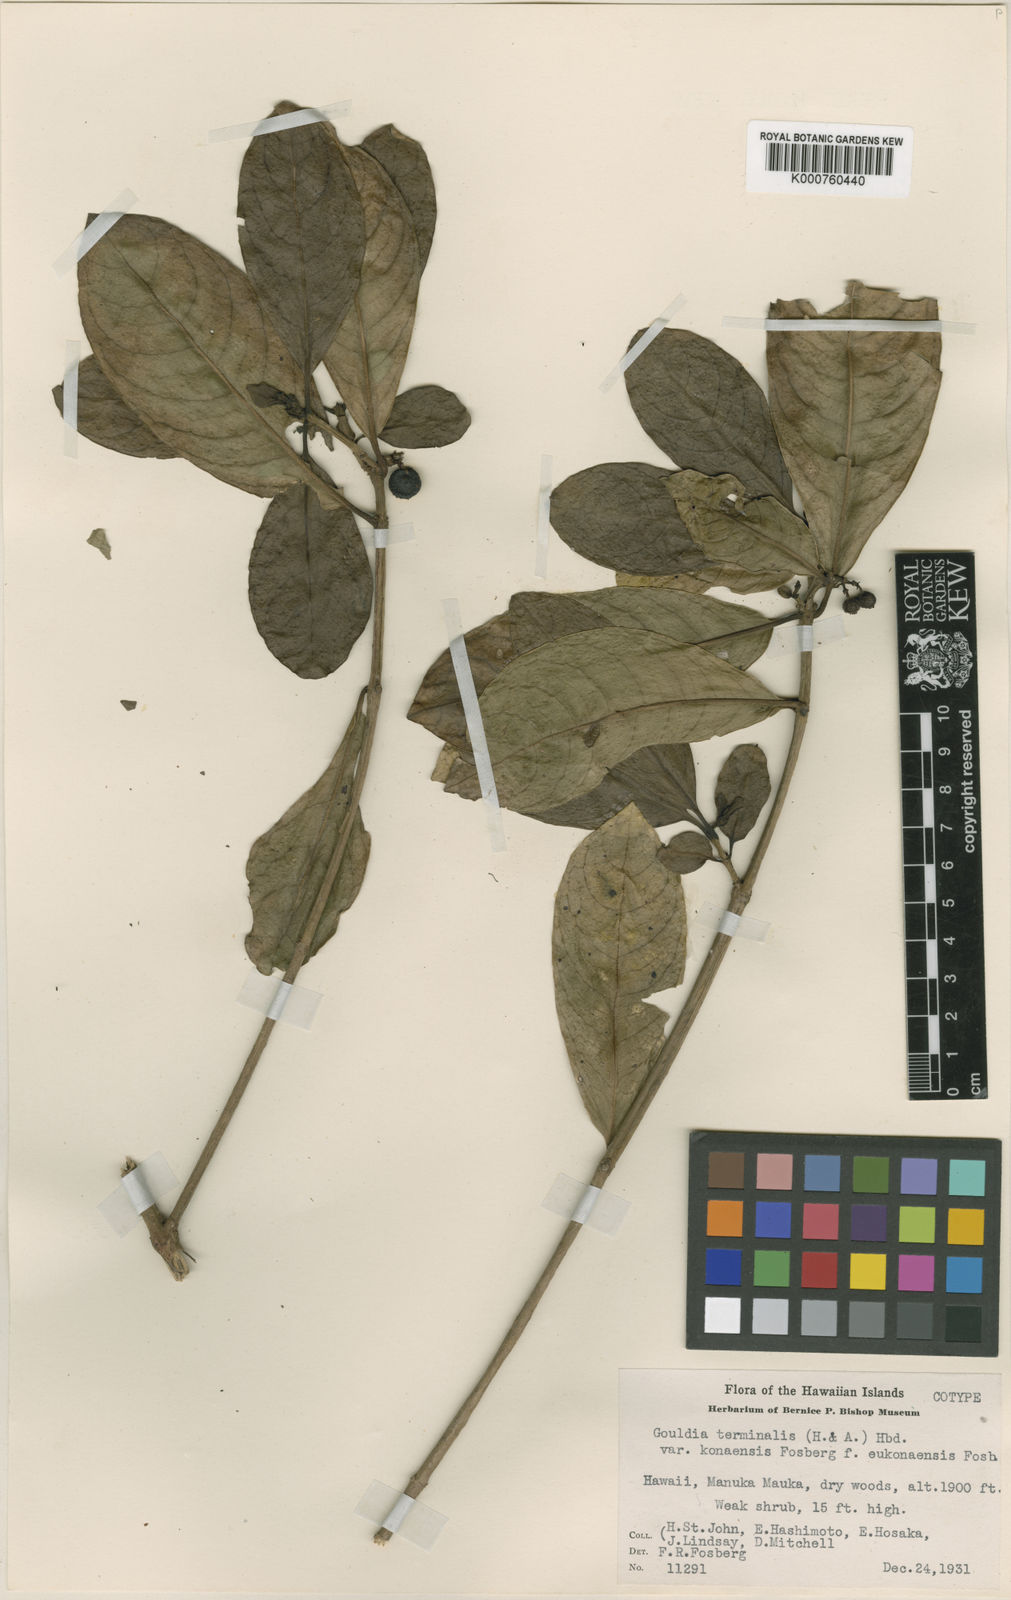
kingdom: Plantae
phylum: Tracheophyta
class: Magnoliopsida
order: Gentianales
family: Rubiaceae
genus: Kadua
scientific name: Kadua affinis
